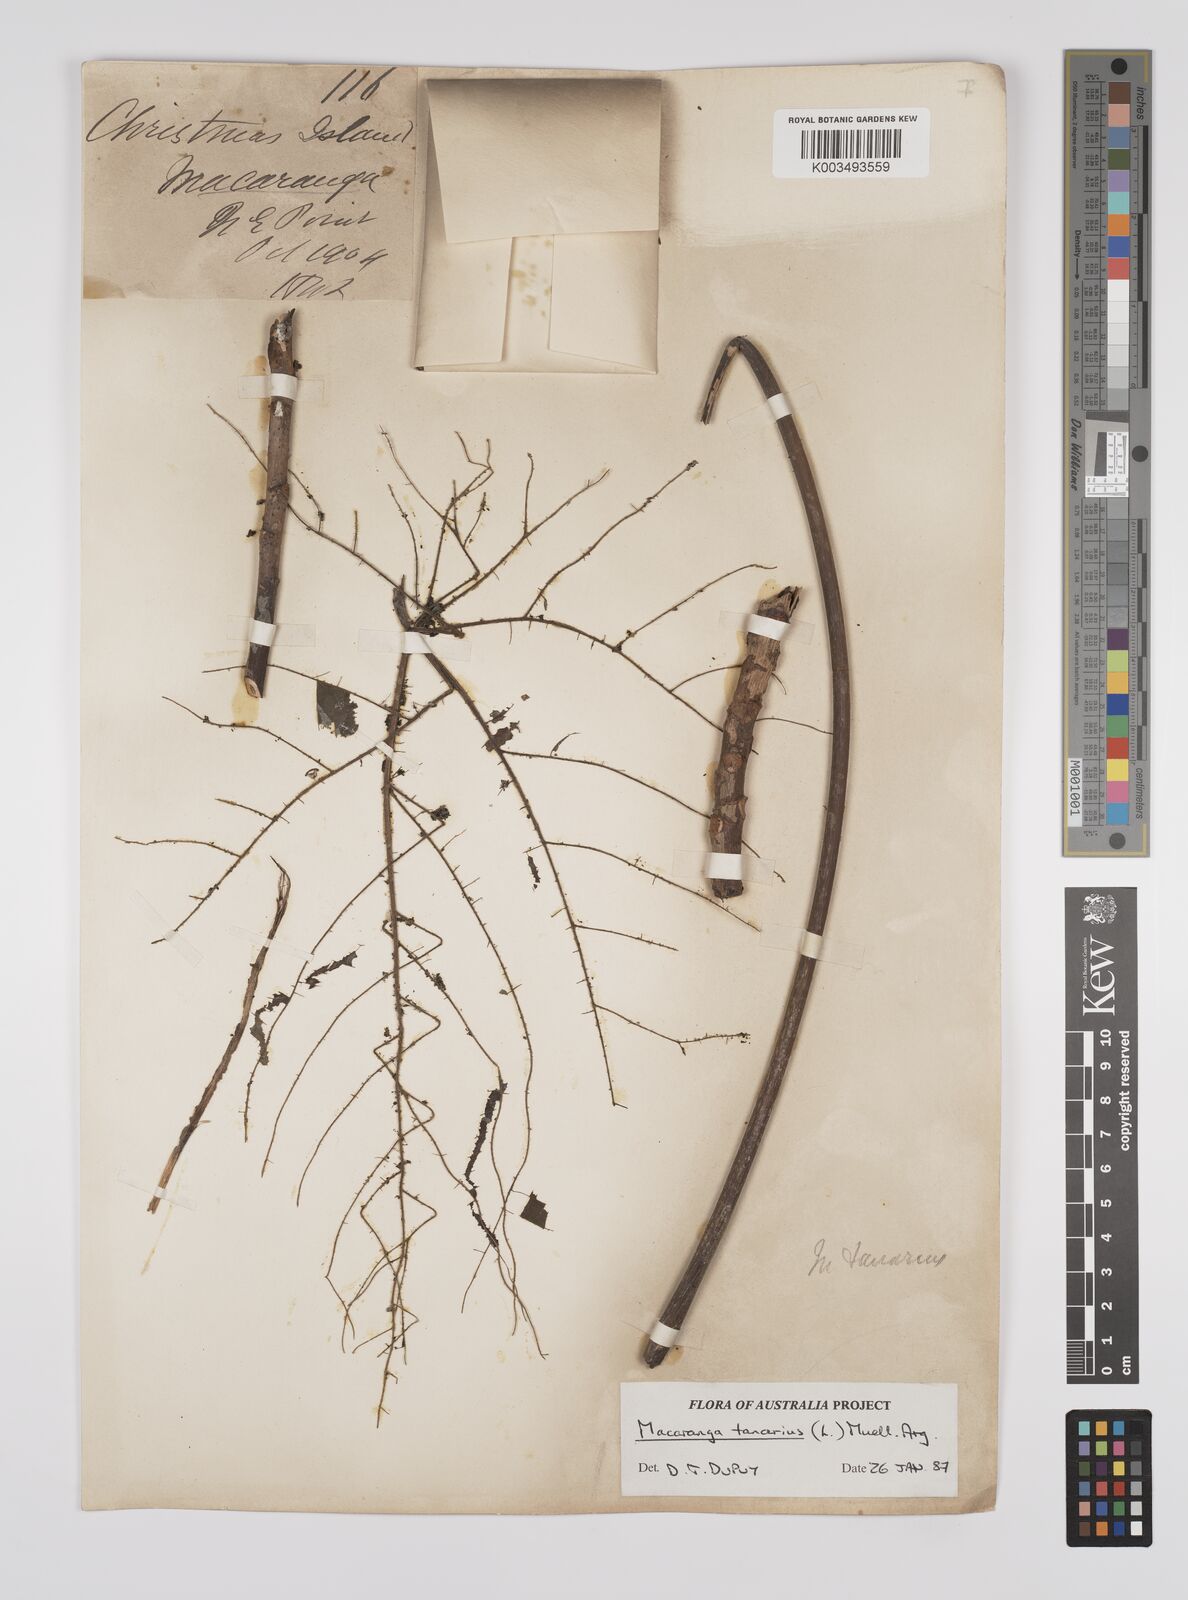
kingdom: Plantae
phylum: Tracheophyta
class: Magnoliopsida
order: Malpighiales
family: Euphorbiaceae
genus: Macaranga
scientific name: Macaranga tanarius
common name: Parasol leaf tree
